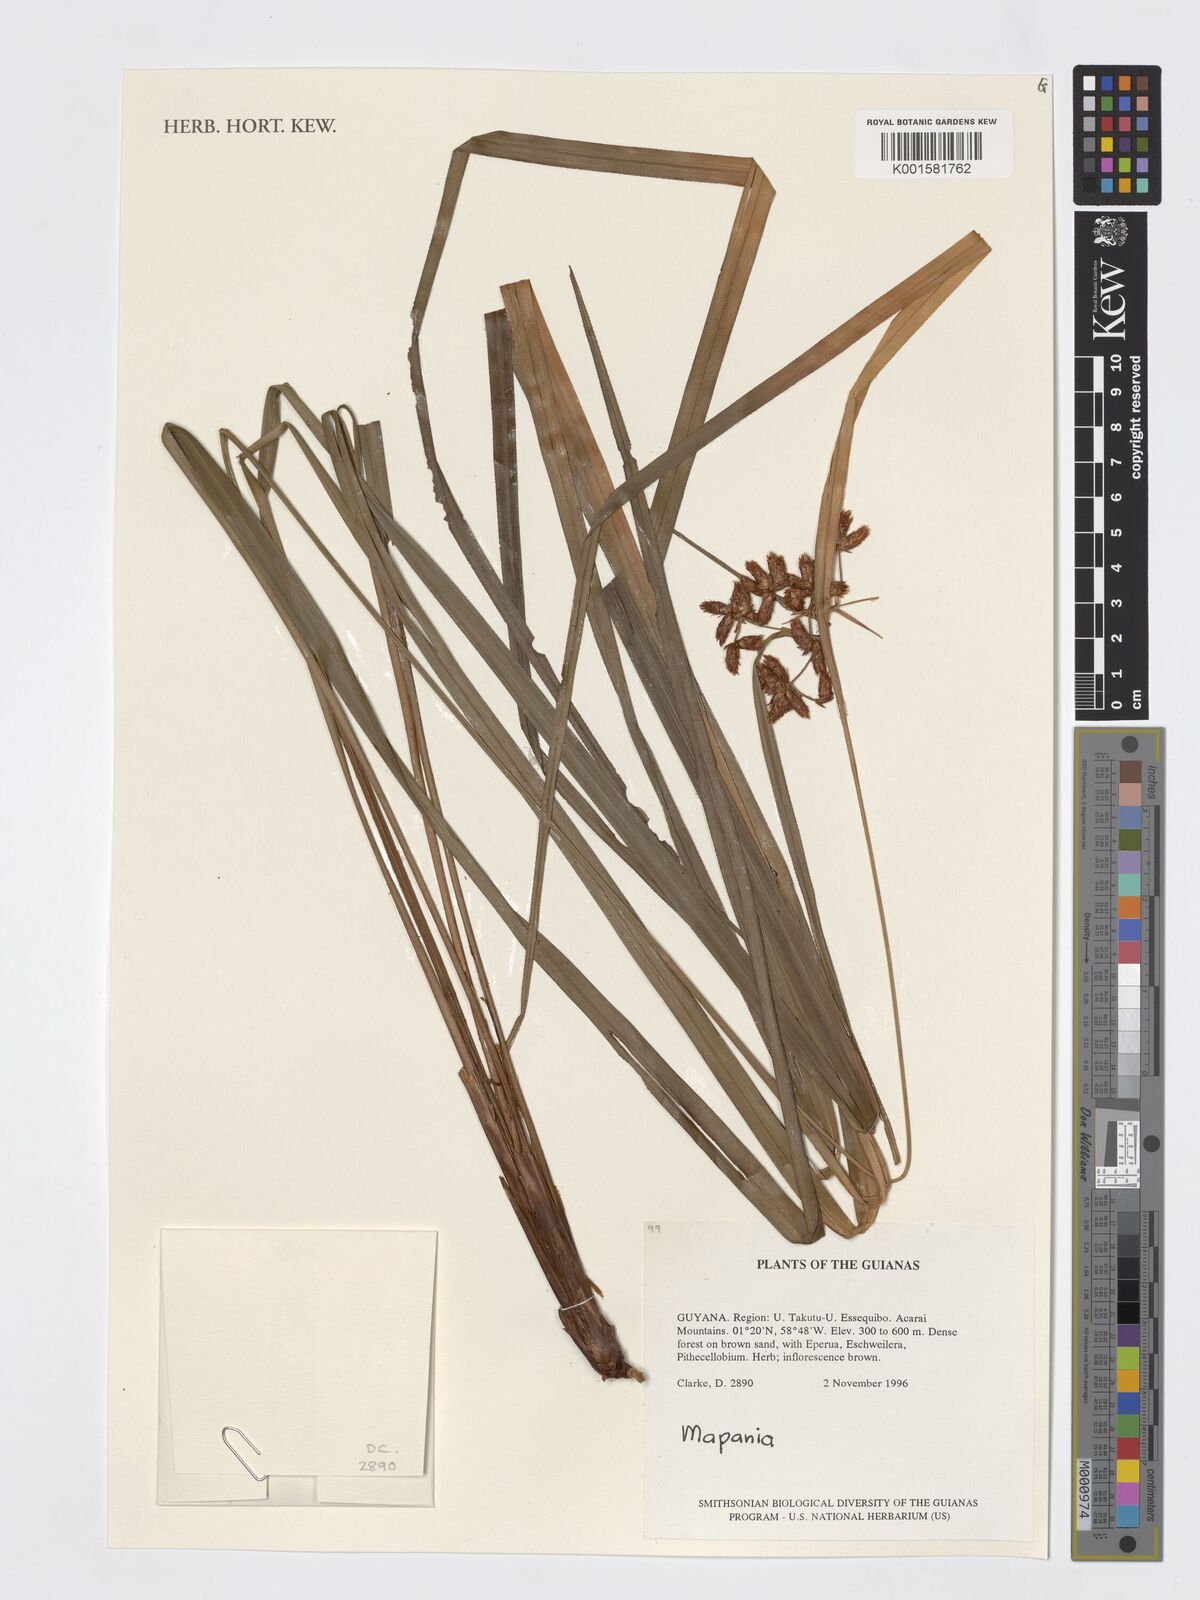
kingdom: Plantae
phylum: Tracheophyta
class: Liliopsida
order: Poales
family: Cyperaceae
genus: Mapania
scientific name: Mapania
